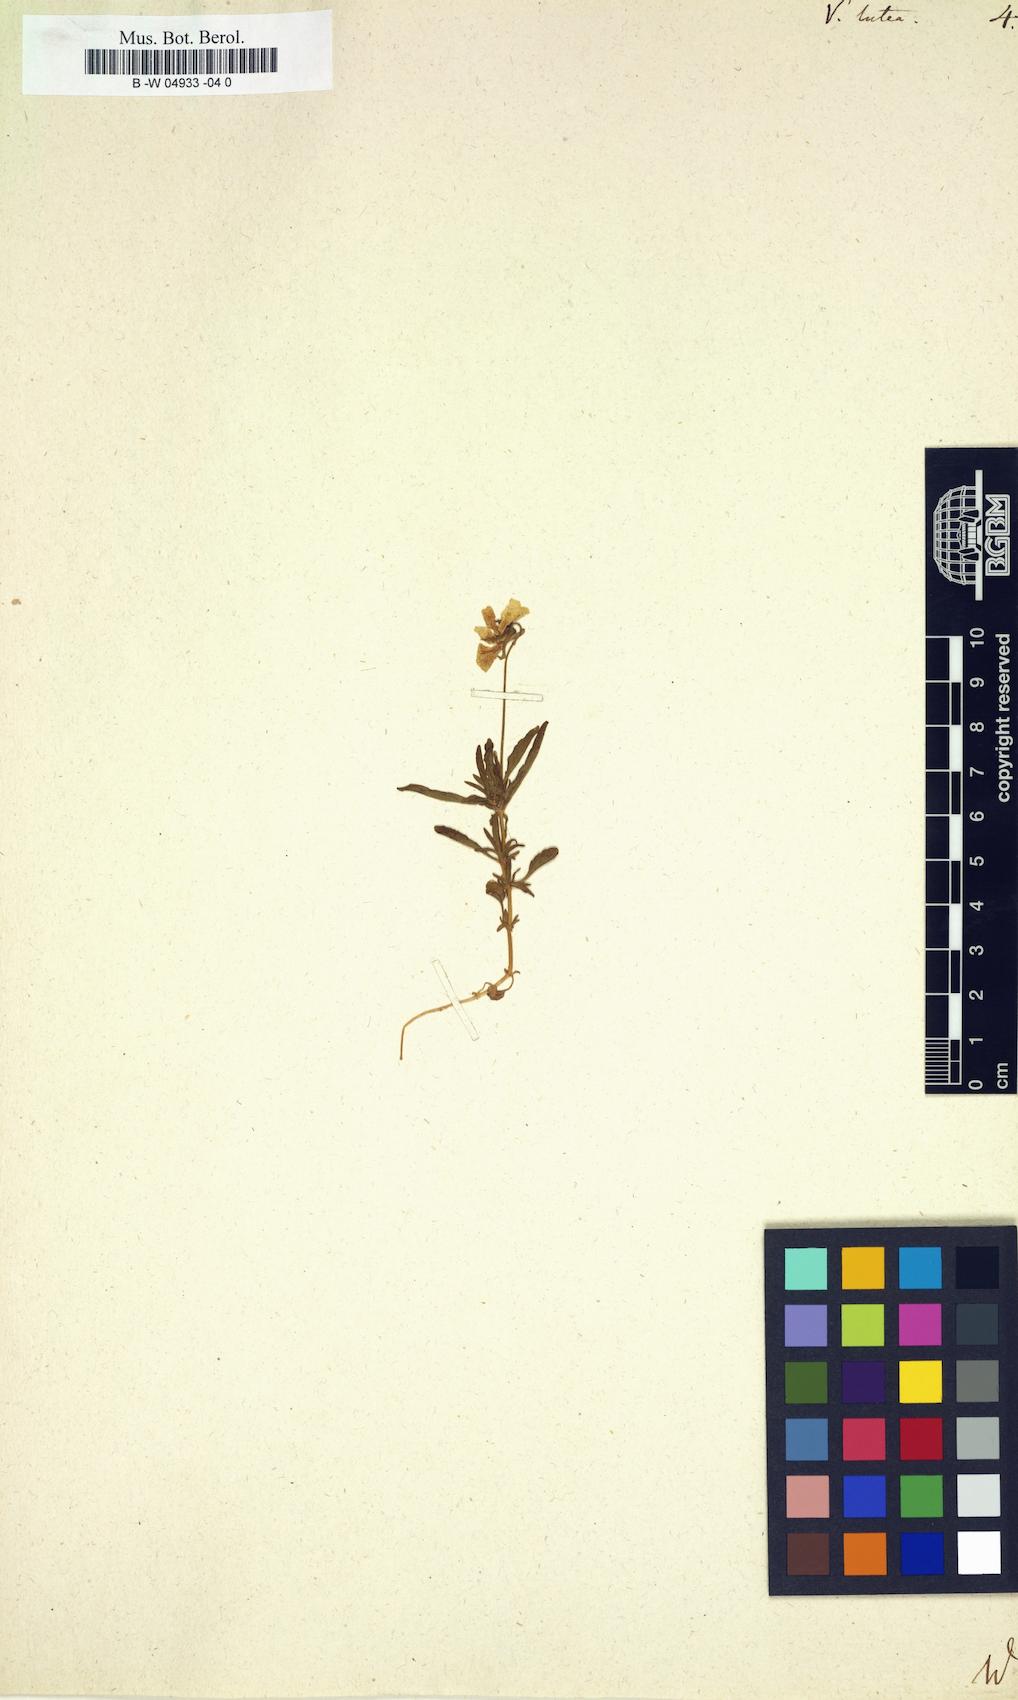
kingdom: Plantae
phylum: Tracheophyta
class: Magnoliopsida
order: Malpighiales
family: Violaceae
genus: Viola
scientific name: Viola lutea
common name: Mountain pansy
